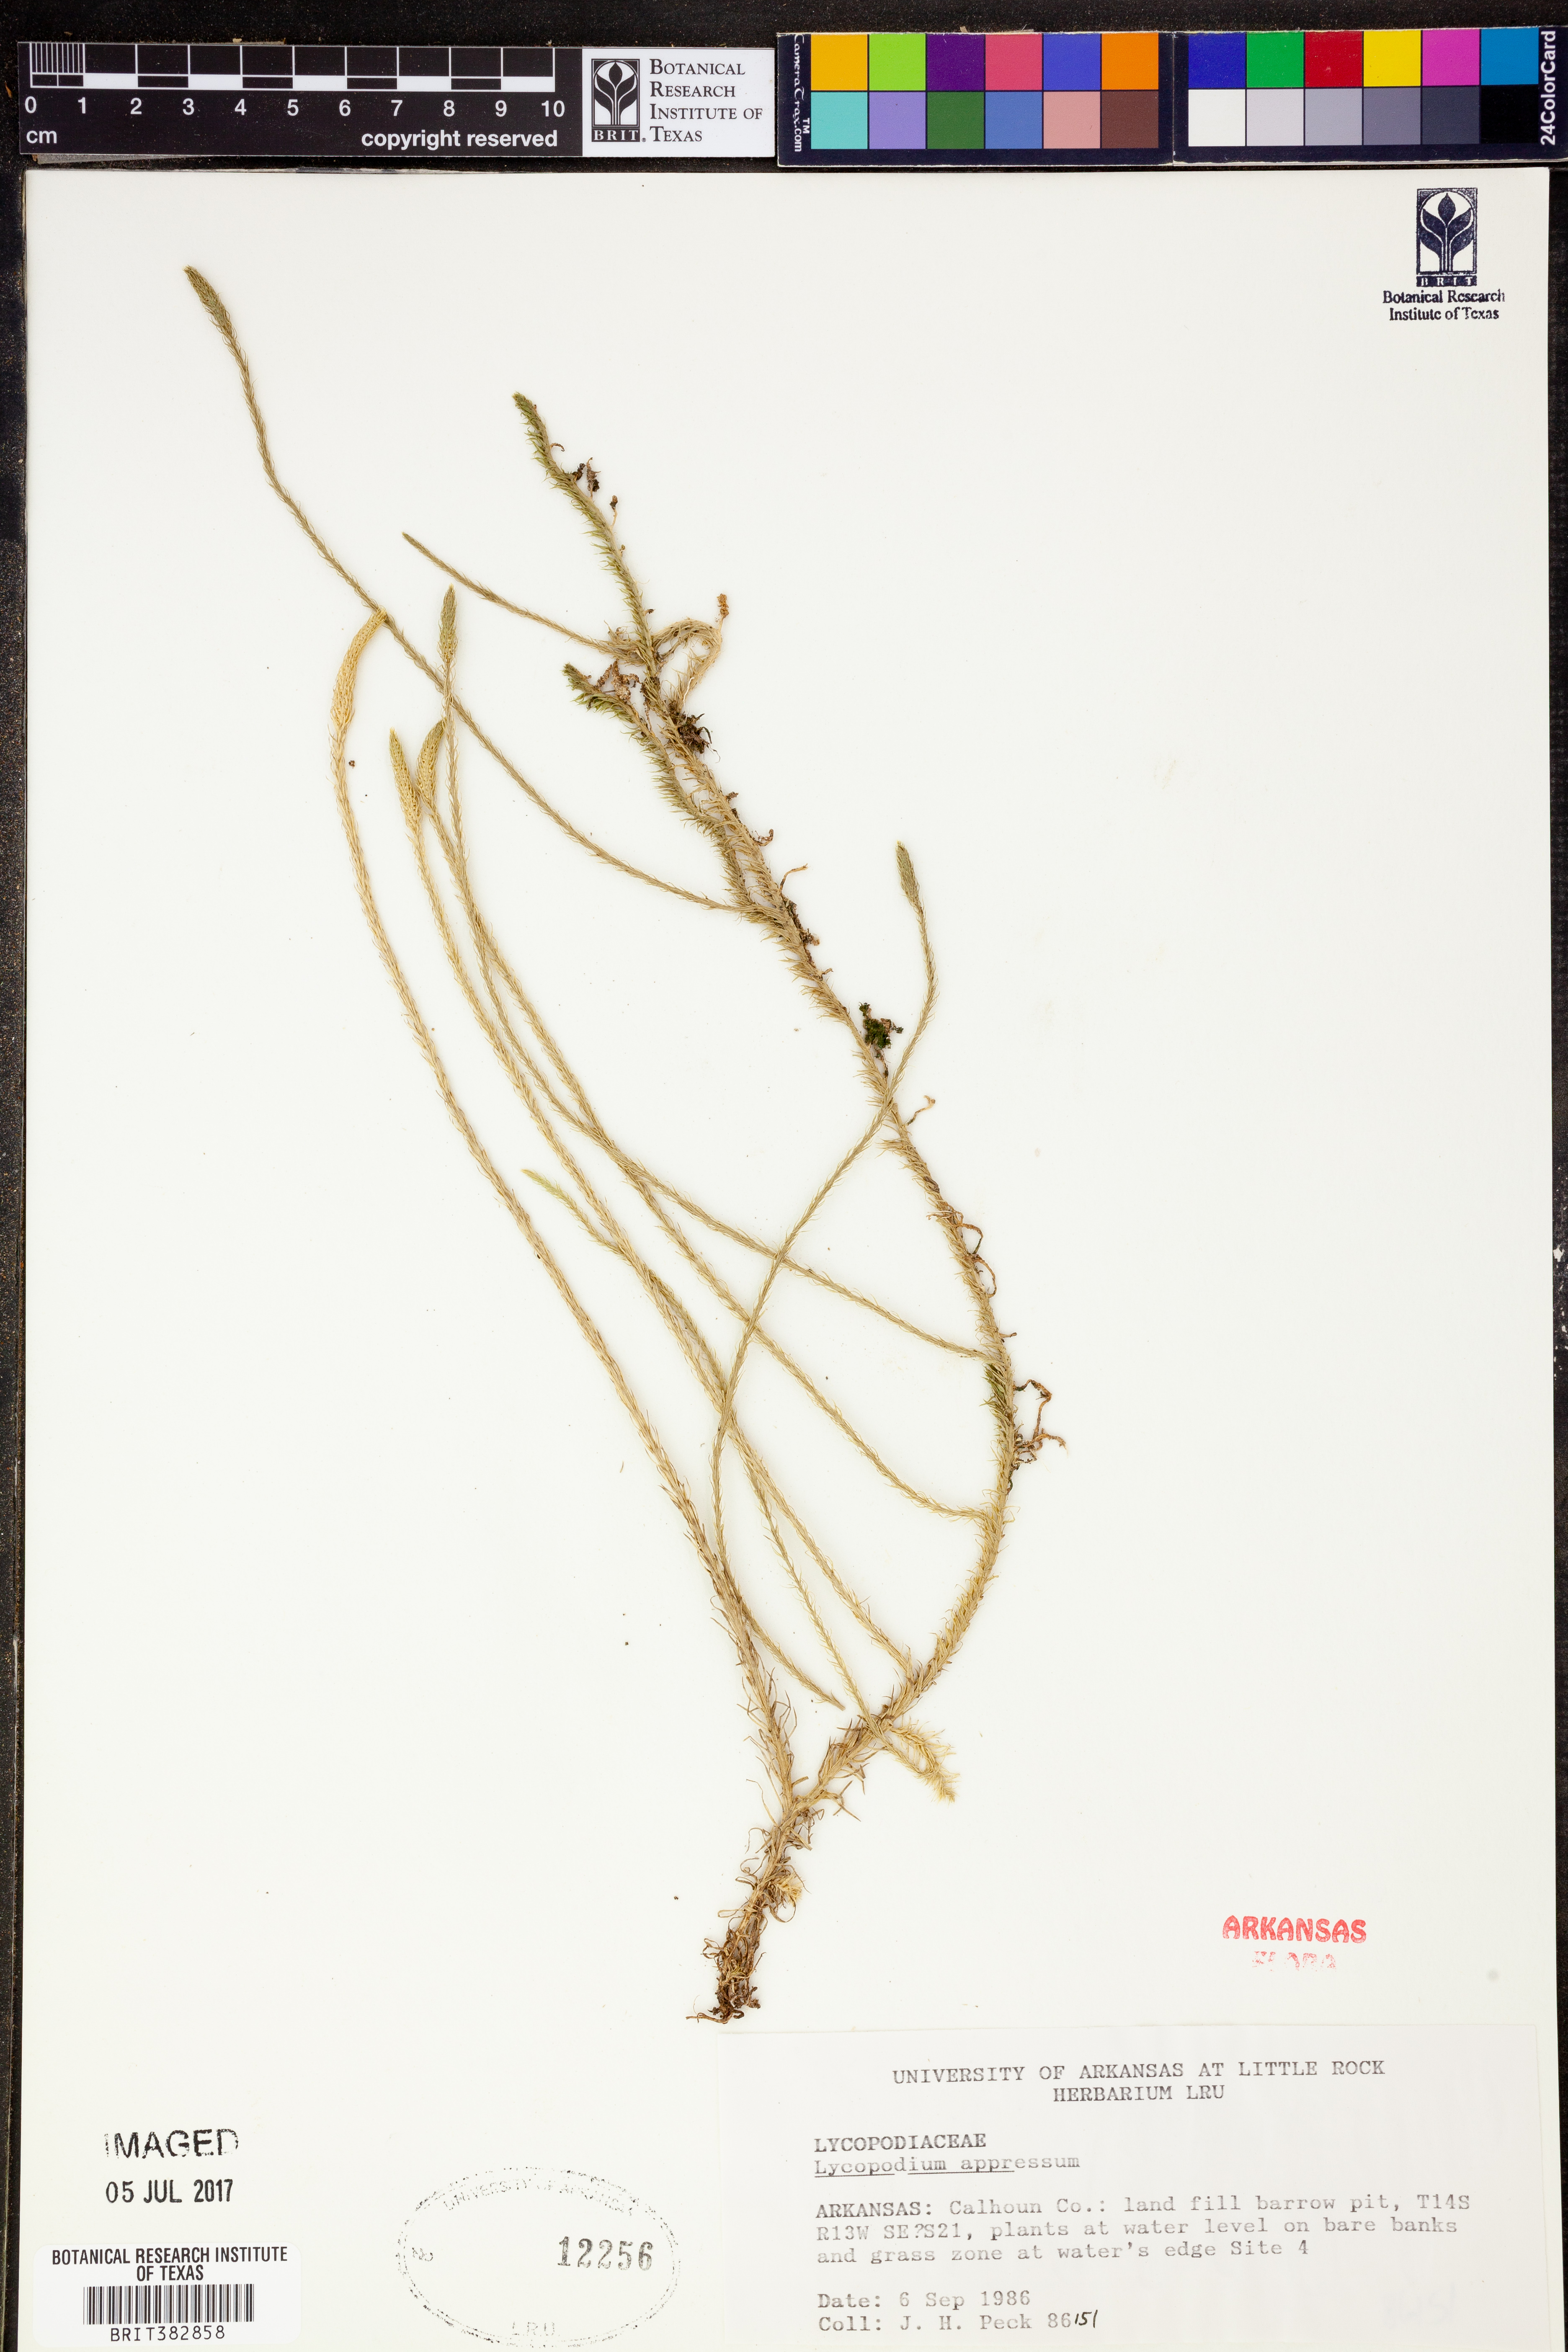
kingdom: Plantae
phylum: Tracheophyta
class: Lycopodiopsida
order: Lycopodiales
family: Lycopodiaceae
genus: Lycopodiella
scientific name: Lycopodiella appressa
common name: Appressed bog clubmoss
